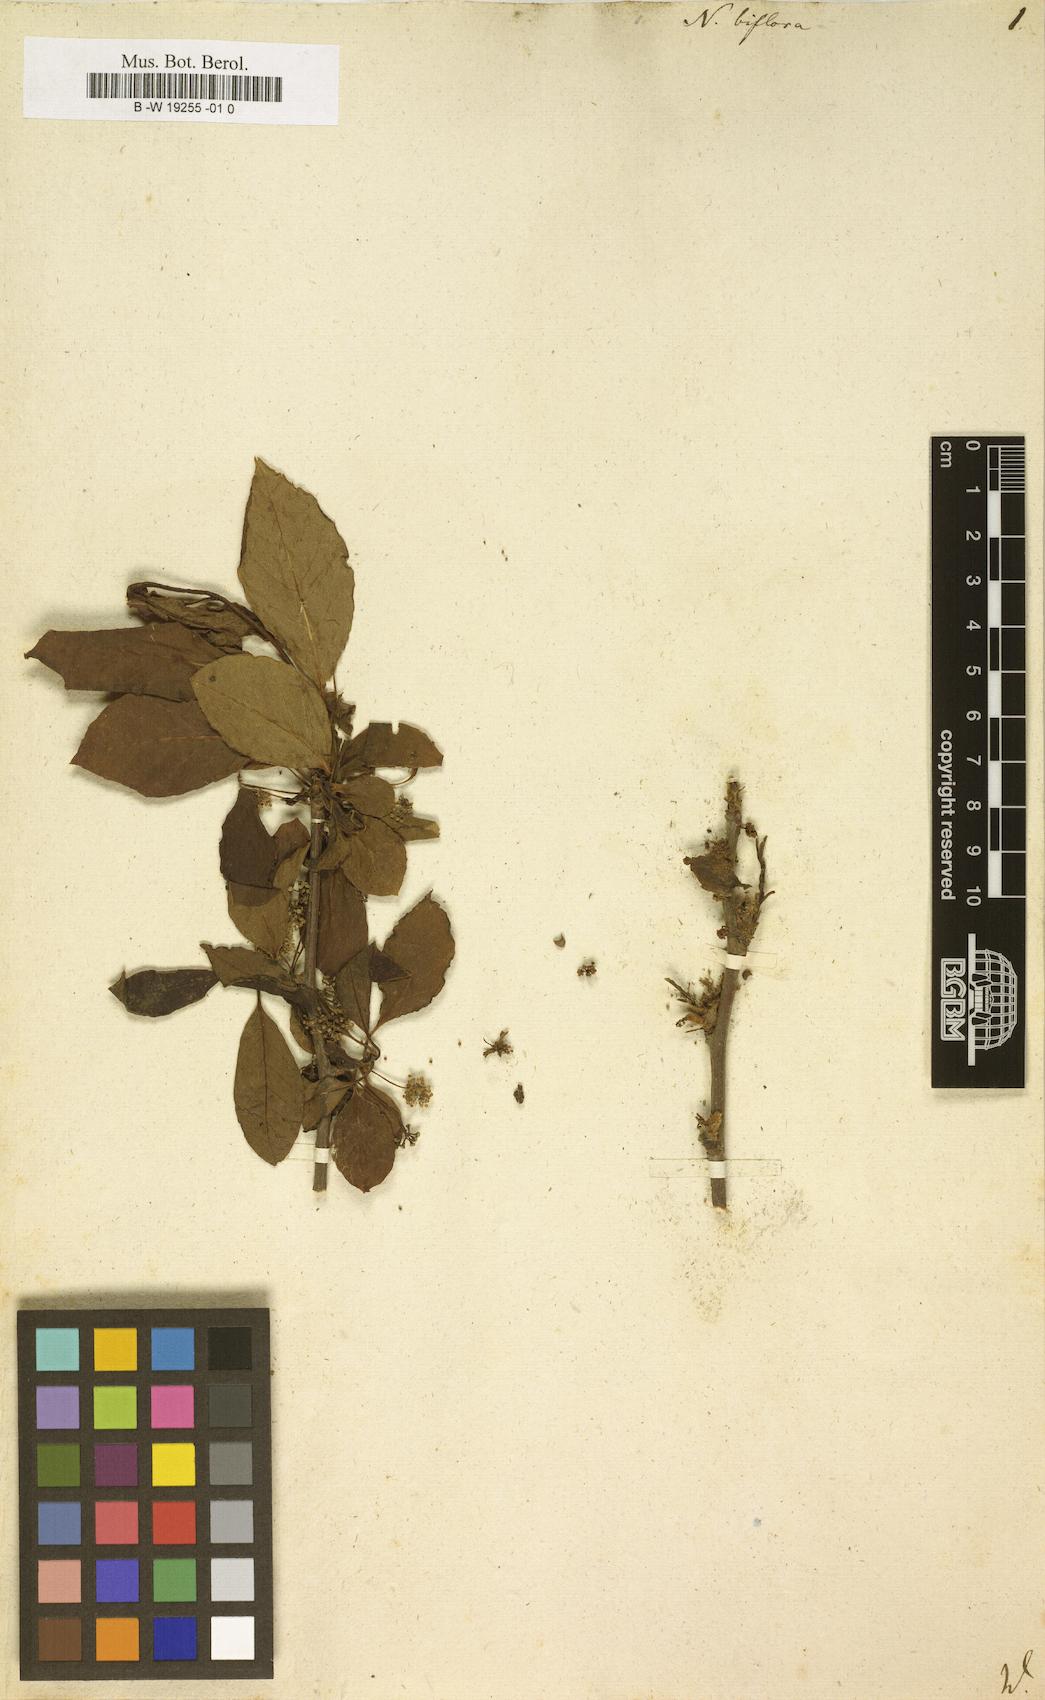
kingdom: Plantae
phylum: Tracheophyta
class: Magnoliopsida
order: Cornales
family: Nyssaceae
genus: Nyssa
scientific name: Nyssa biflora
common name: Swamp blackgum
